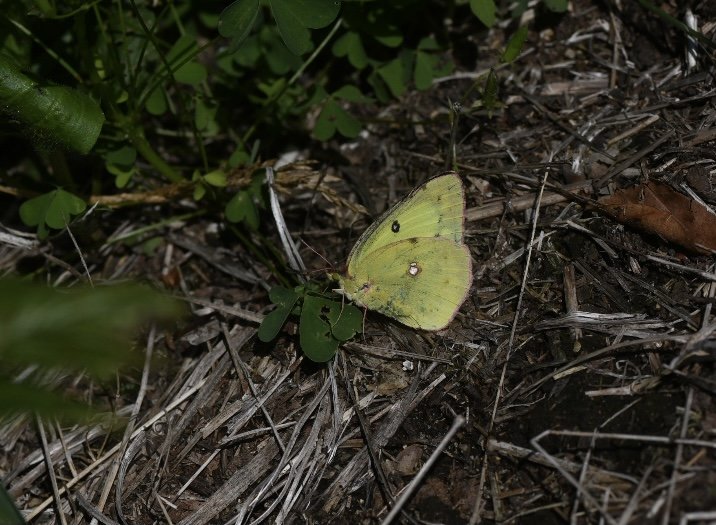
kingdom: Animalia
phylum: Arthropoda
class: Insecta
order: Lepidoptera
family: Pieridae
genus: Colias
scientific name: Colias philodice
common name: Clouded Sulphur
